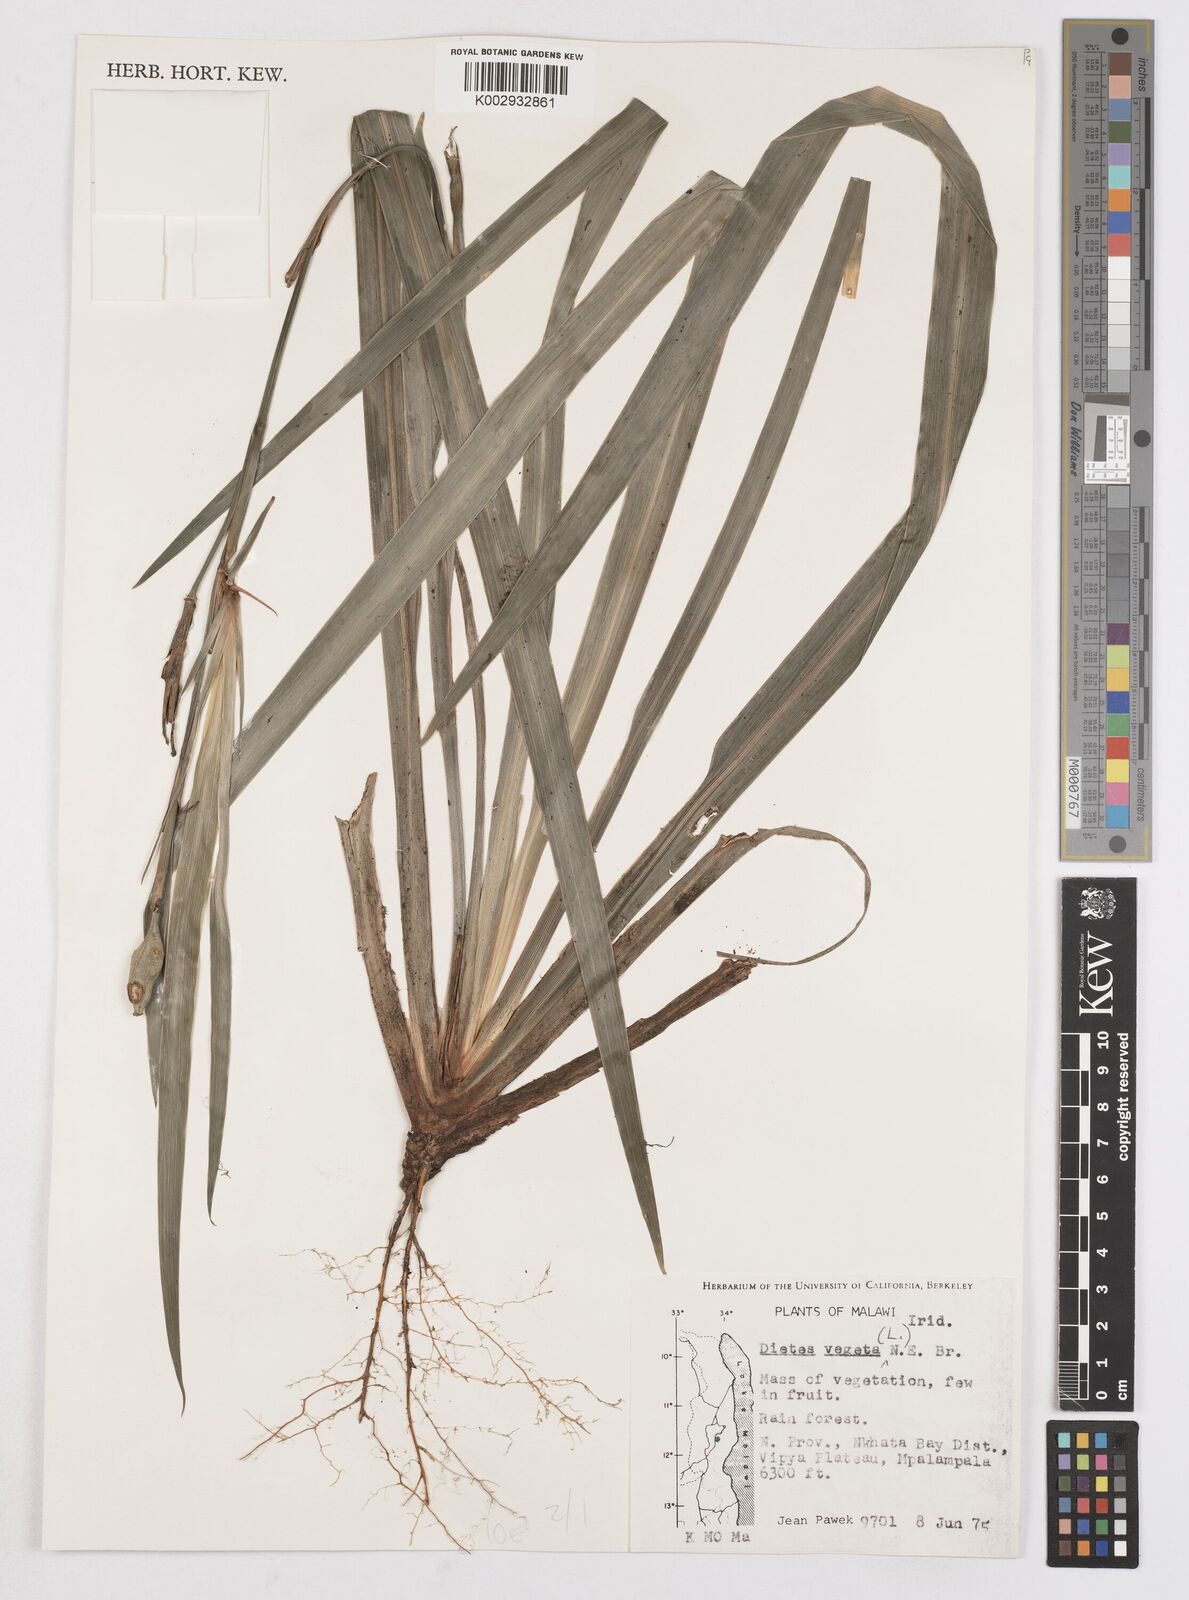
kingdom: Plantae
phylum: Tracheophyta
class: Liliopsida
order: Asparagales
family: Iridaceae
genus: Dietes
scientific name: Dietes iridioides
